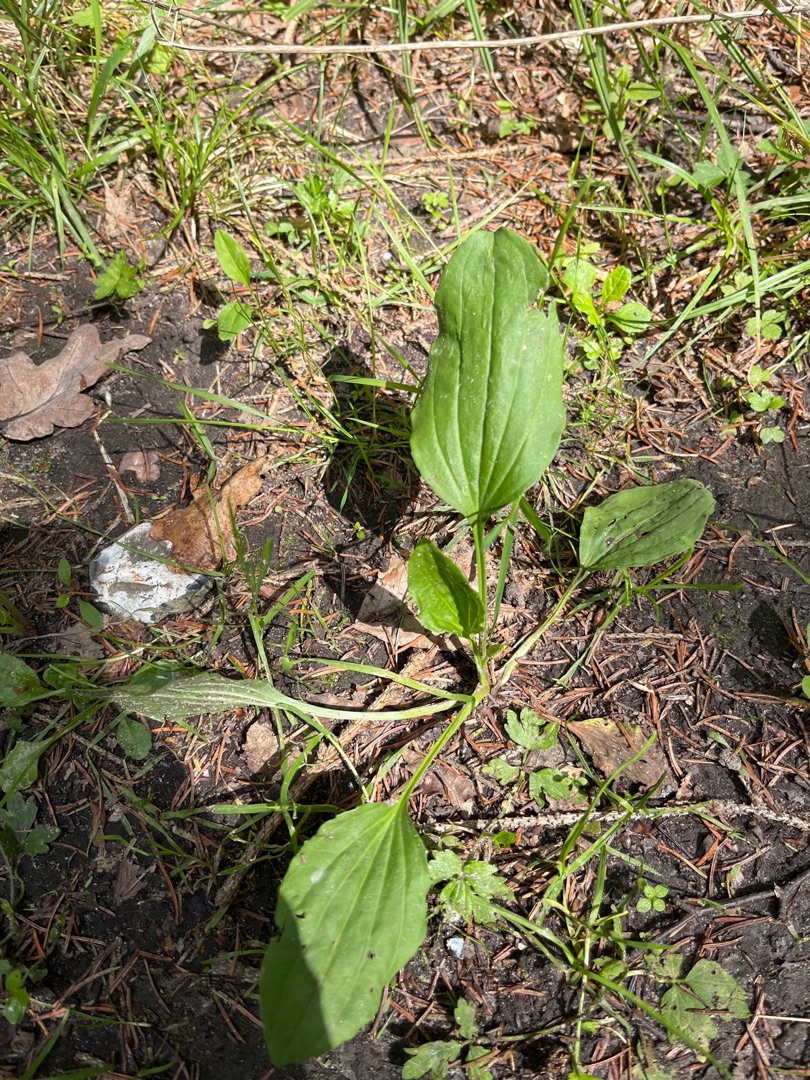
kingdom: Plantae
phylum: Tracheophyta
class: Magnoliopsida
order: Lamiales
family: Plantaginaceae
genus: Plantago
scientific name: Plantago major
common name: Glat vejbred
